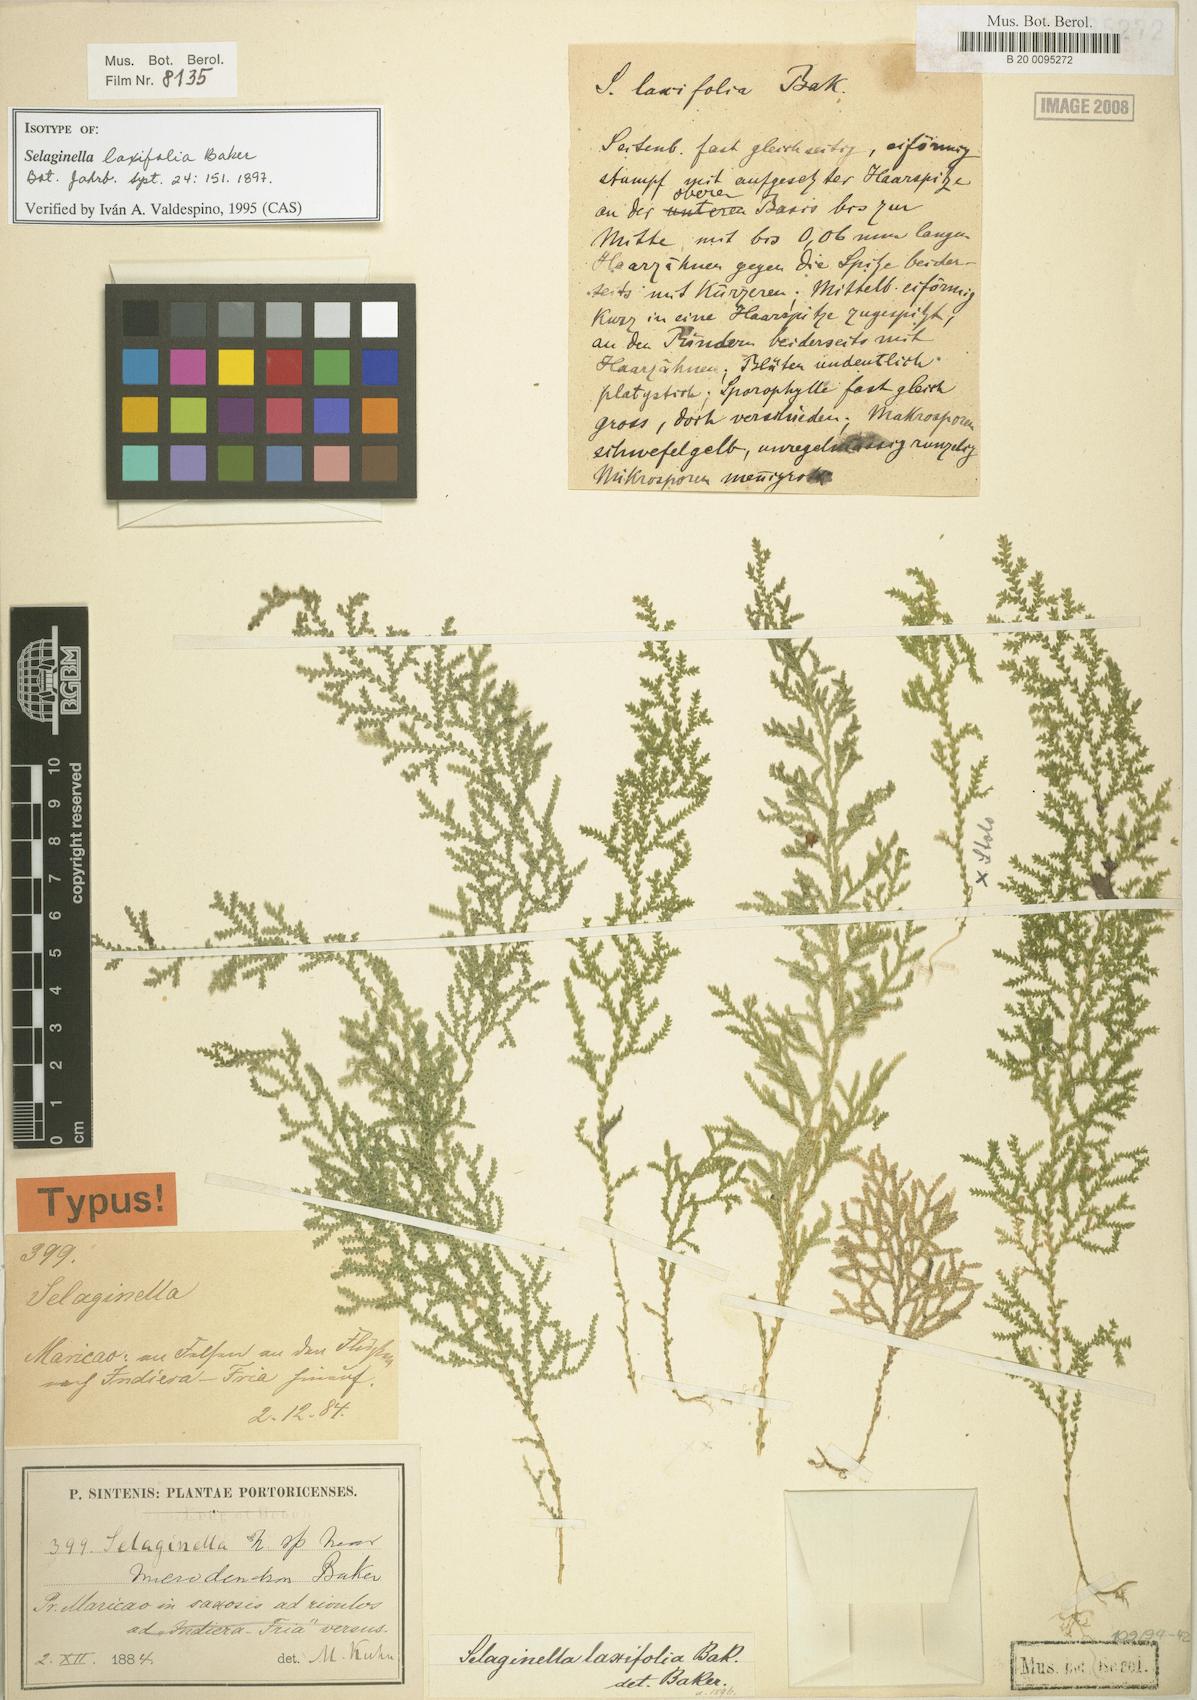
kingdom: Plantae
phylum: Tracheophyta
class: Lycopodiopsida
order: Selaginellales
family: Selaginellaceae
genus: Selaginella
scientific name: Selaginella laxifolia
